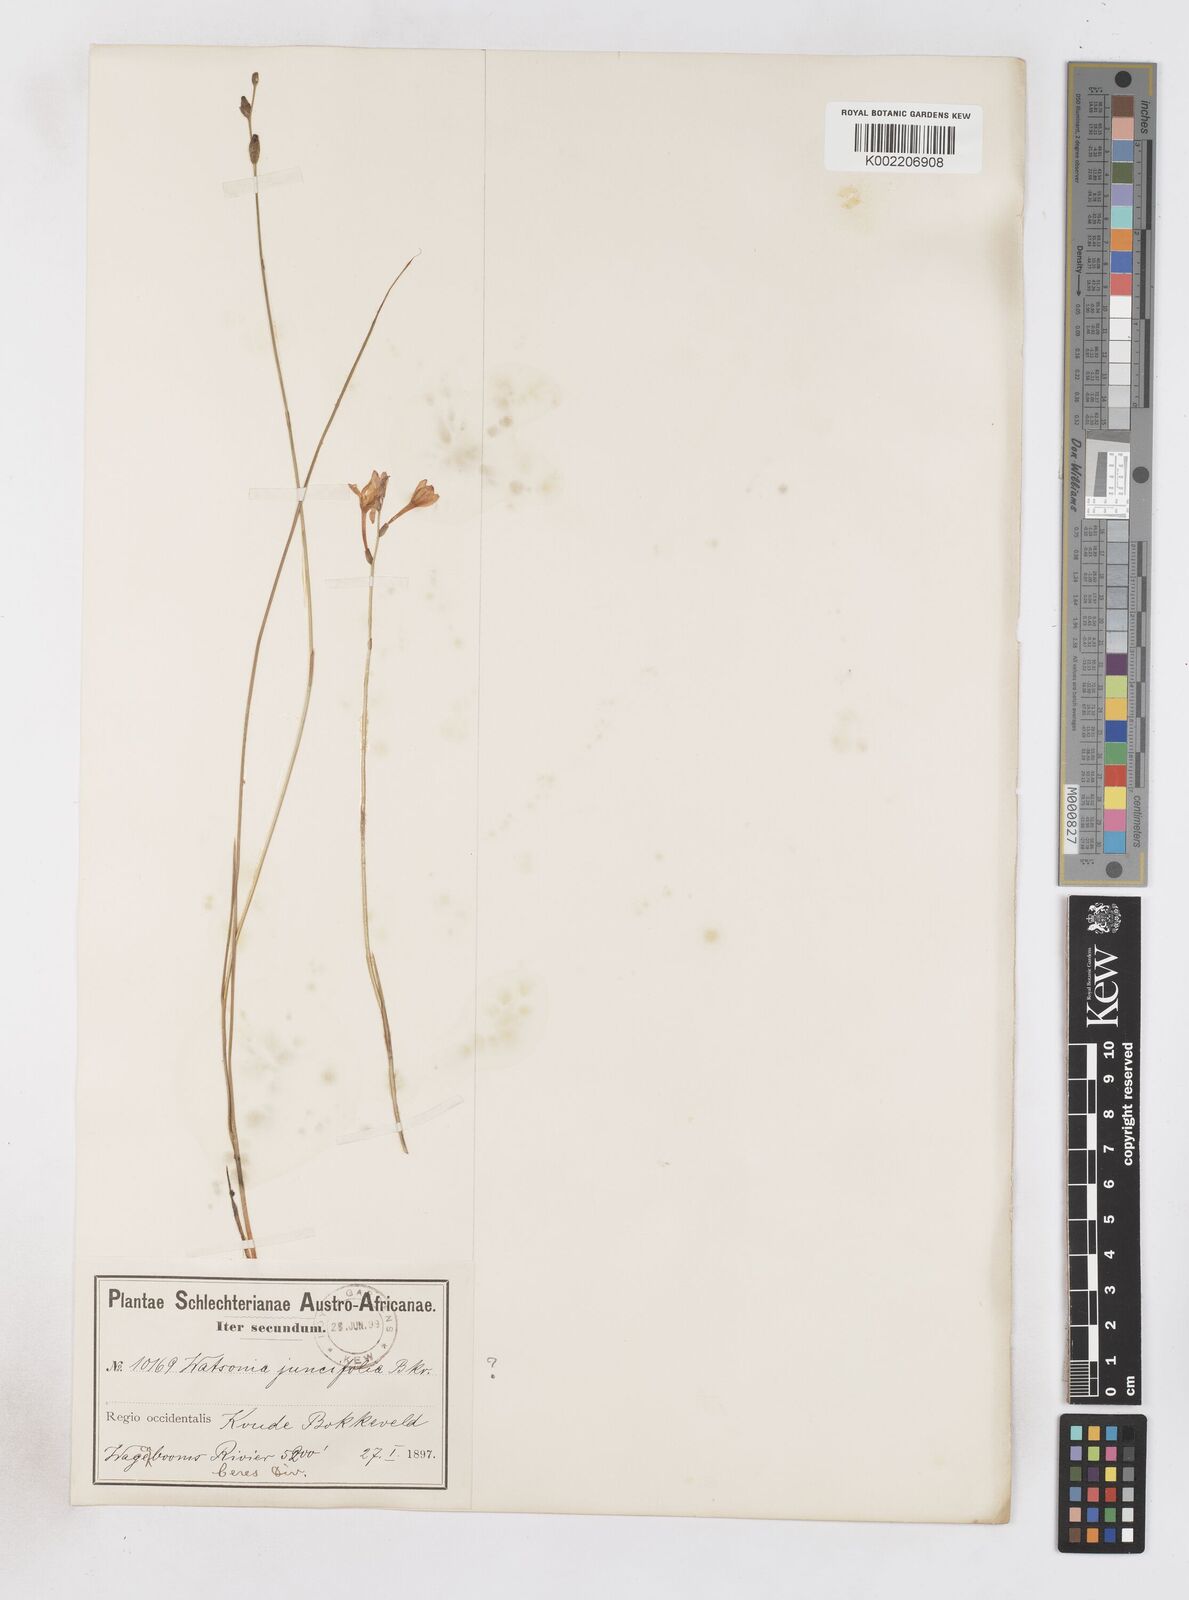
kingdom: Plantae
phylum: Tracheophyta
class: Liliopsida
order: Asparagales
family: Iridaceae
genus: Micranthus
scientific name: Micranthus plantagineus
